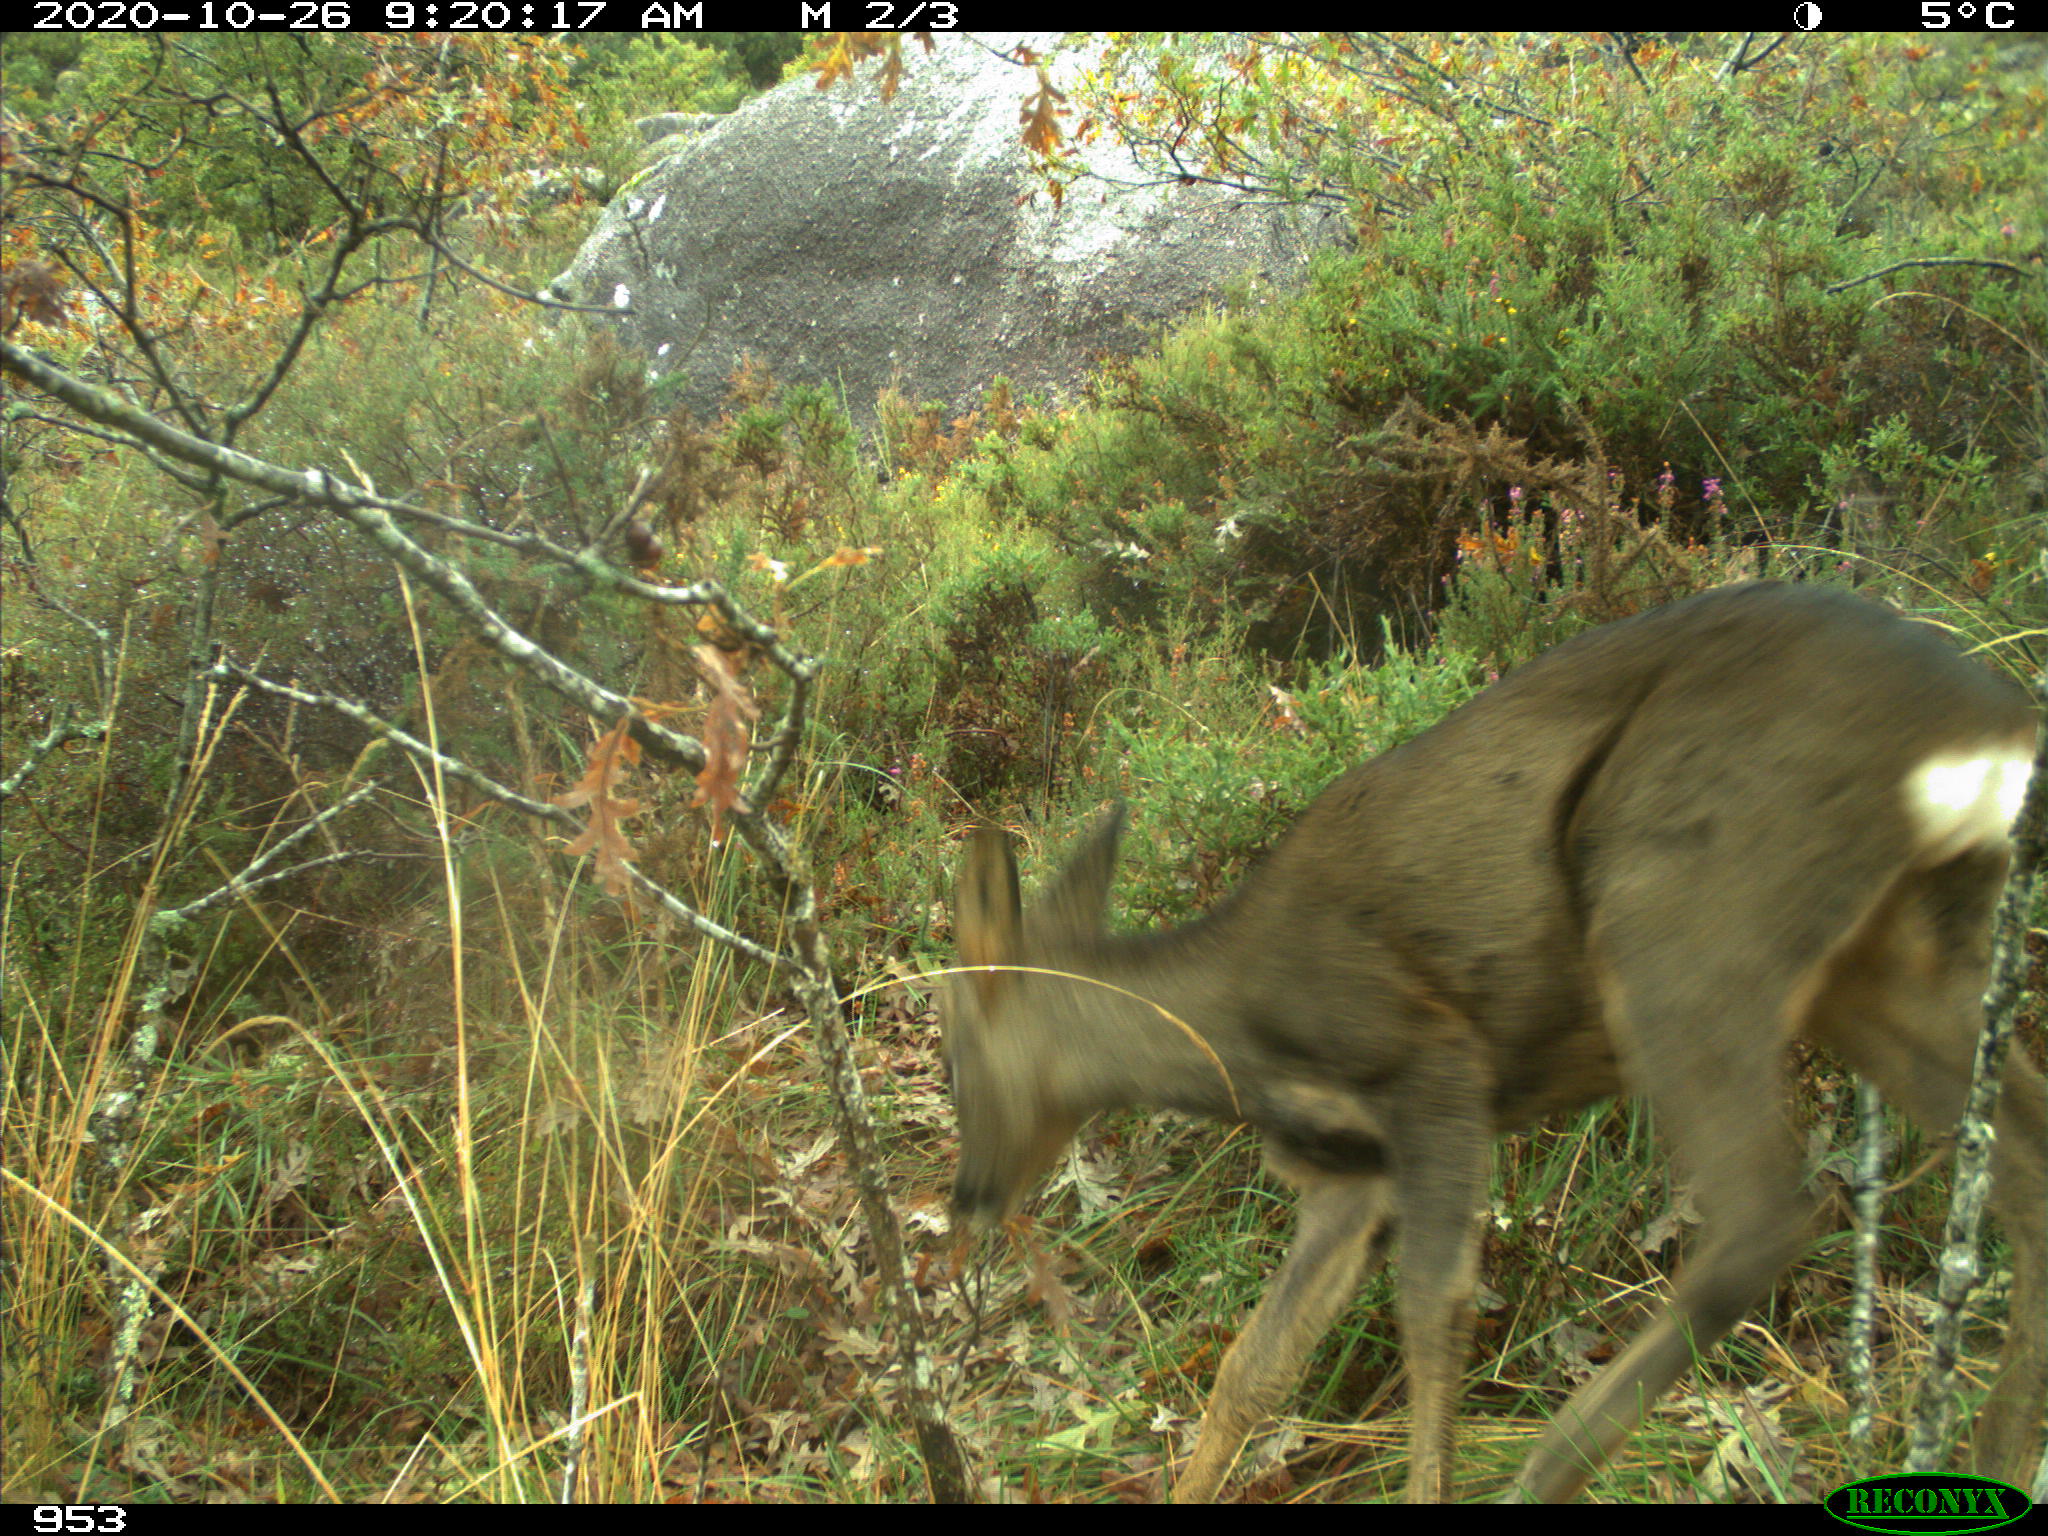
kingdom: Animalia
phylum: Chordata
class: Mammalia
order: Artiodactyla
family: Cervidae
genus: Capreolus
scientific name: Capreolus capreolus
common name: Western roe deer
